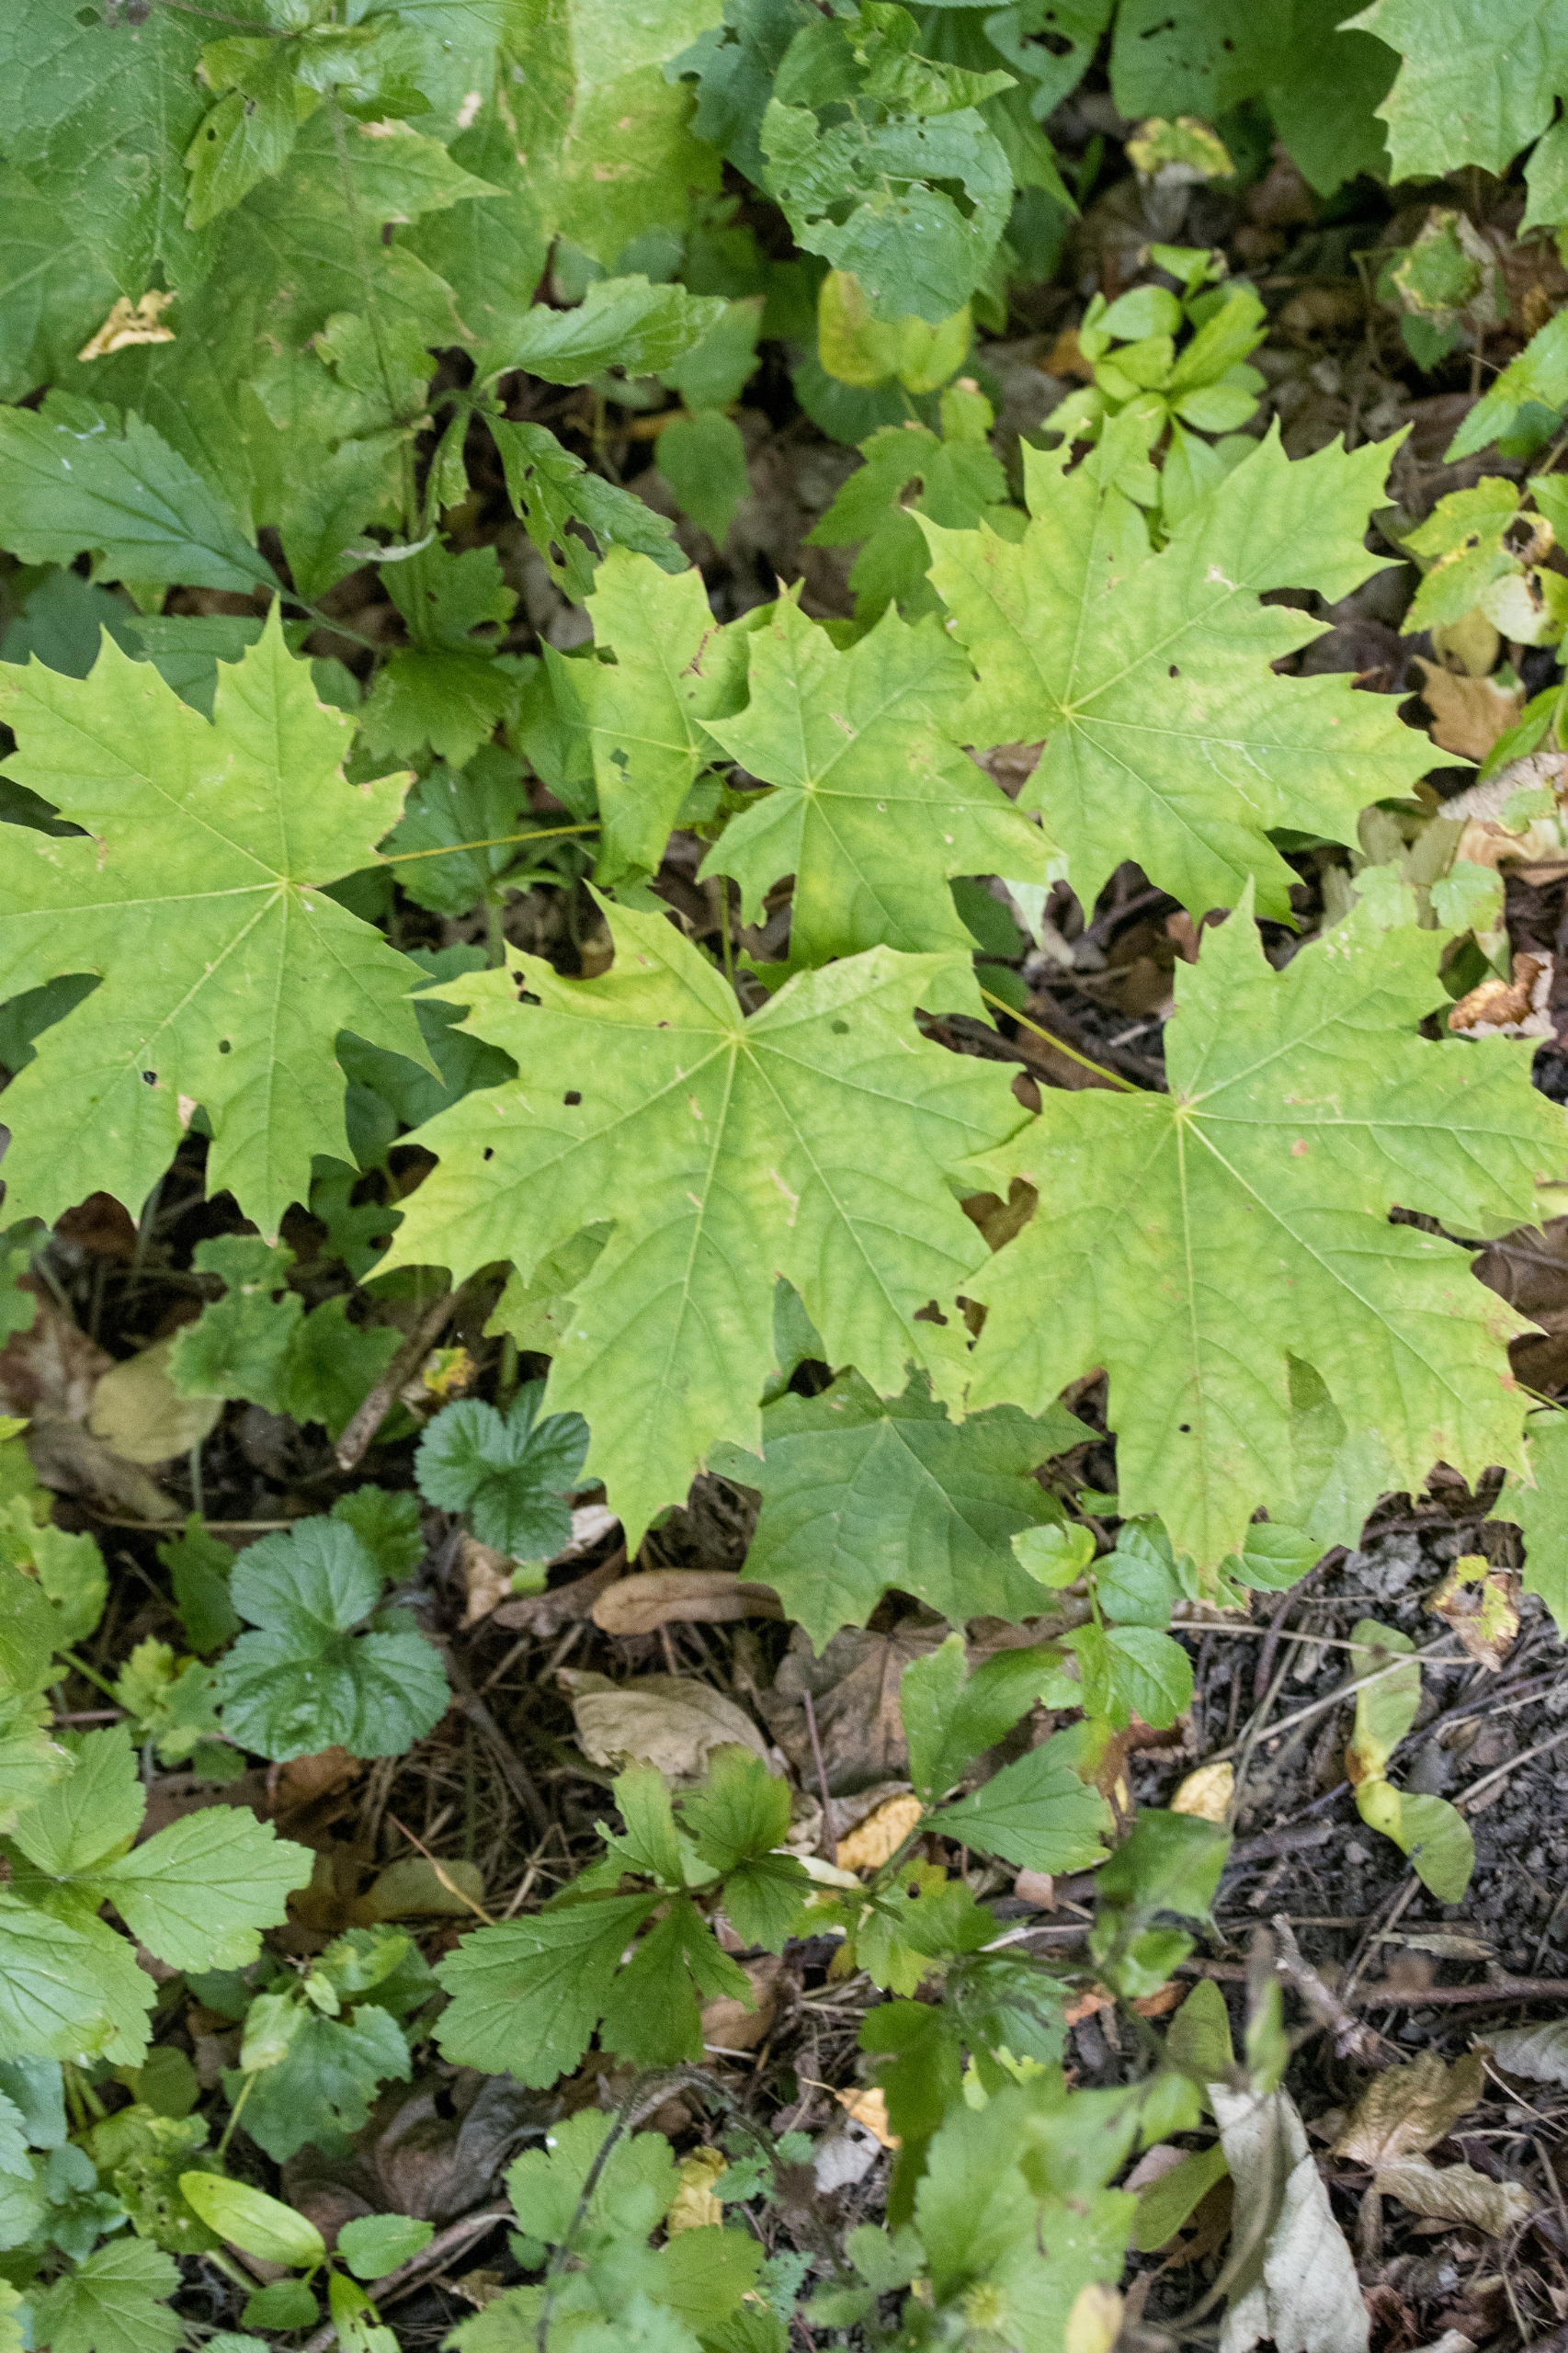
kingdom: Plantae
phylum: Tracheophyta
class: Magnoliopsida
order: Sapindales
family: Sapindaceae
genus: Acer
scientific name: Acer platanoides
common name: Spids-løn
